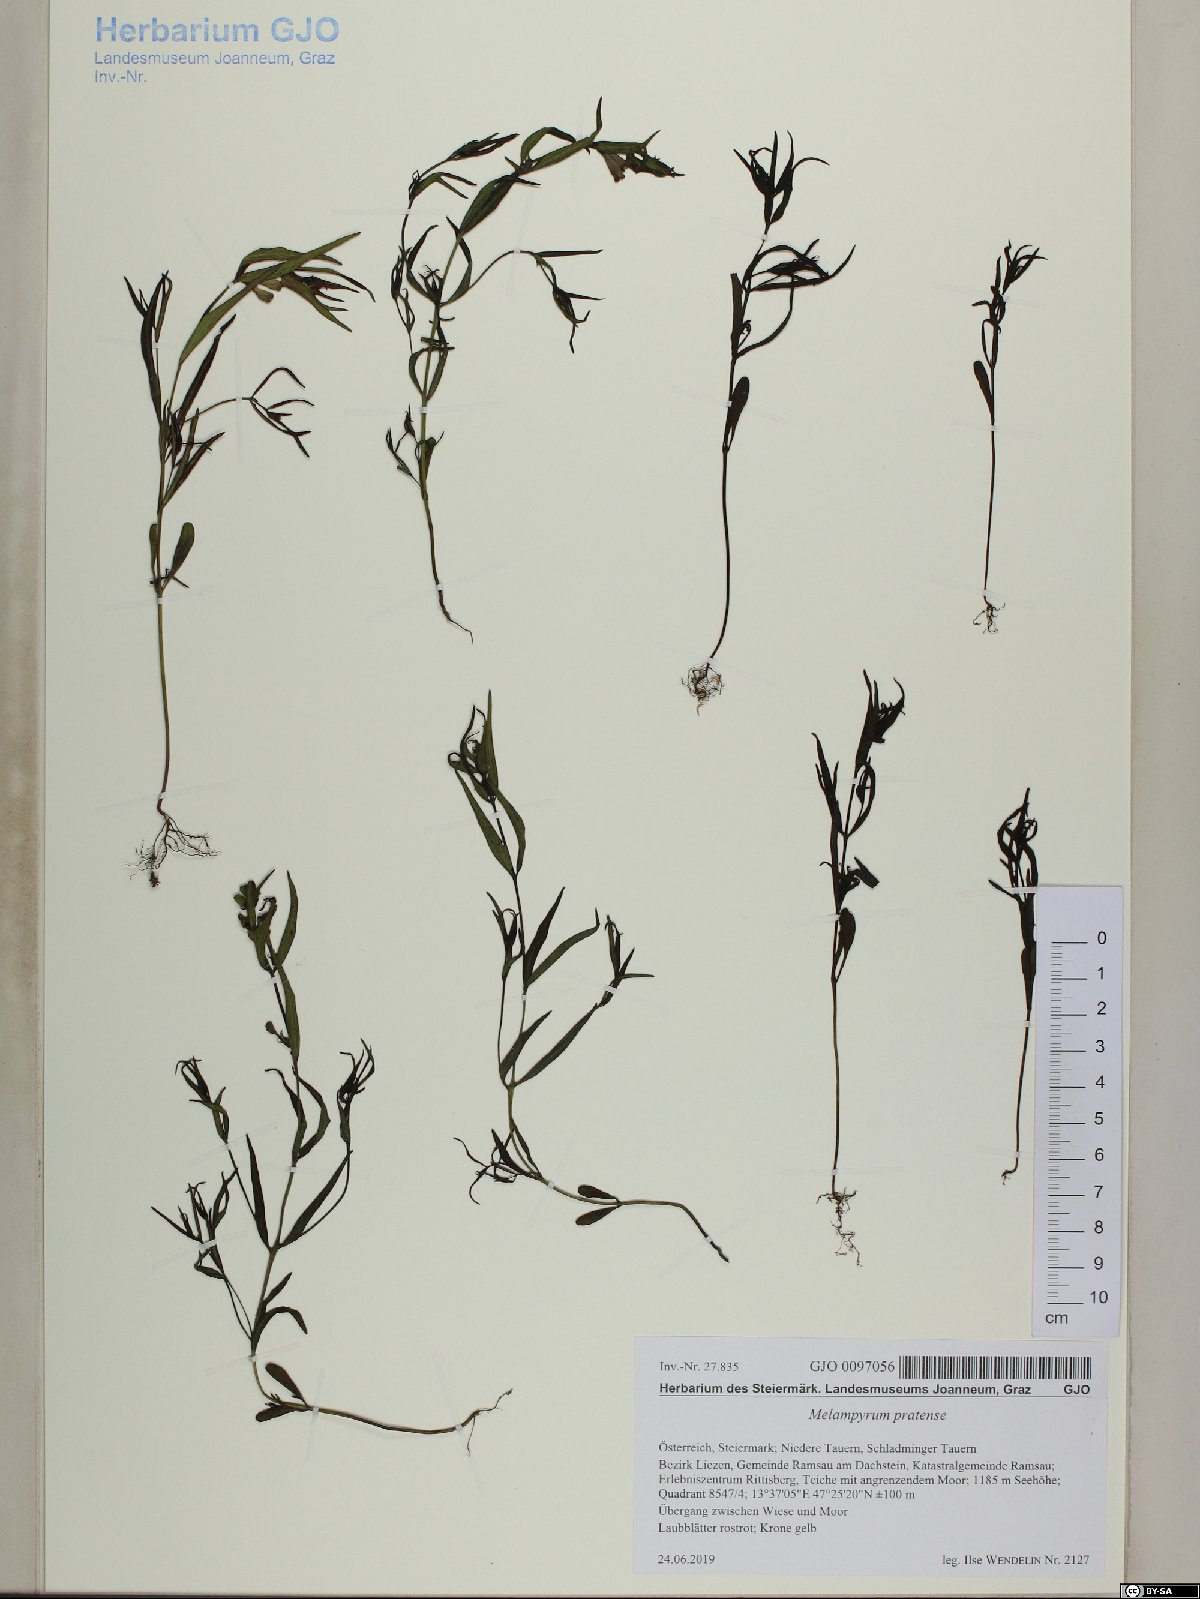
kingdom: Plantae
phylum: Tracheophyta
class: Magnoliopsida
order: Lamiales
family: Orobanchaceae
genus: Melampyrum
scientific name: Melampyrum pratense
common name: Common cow-wheat
